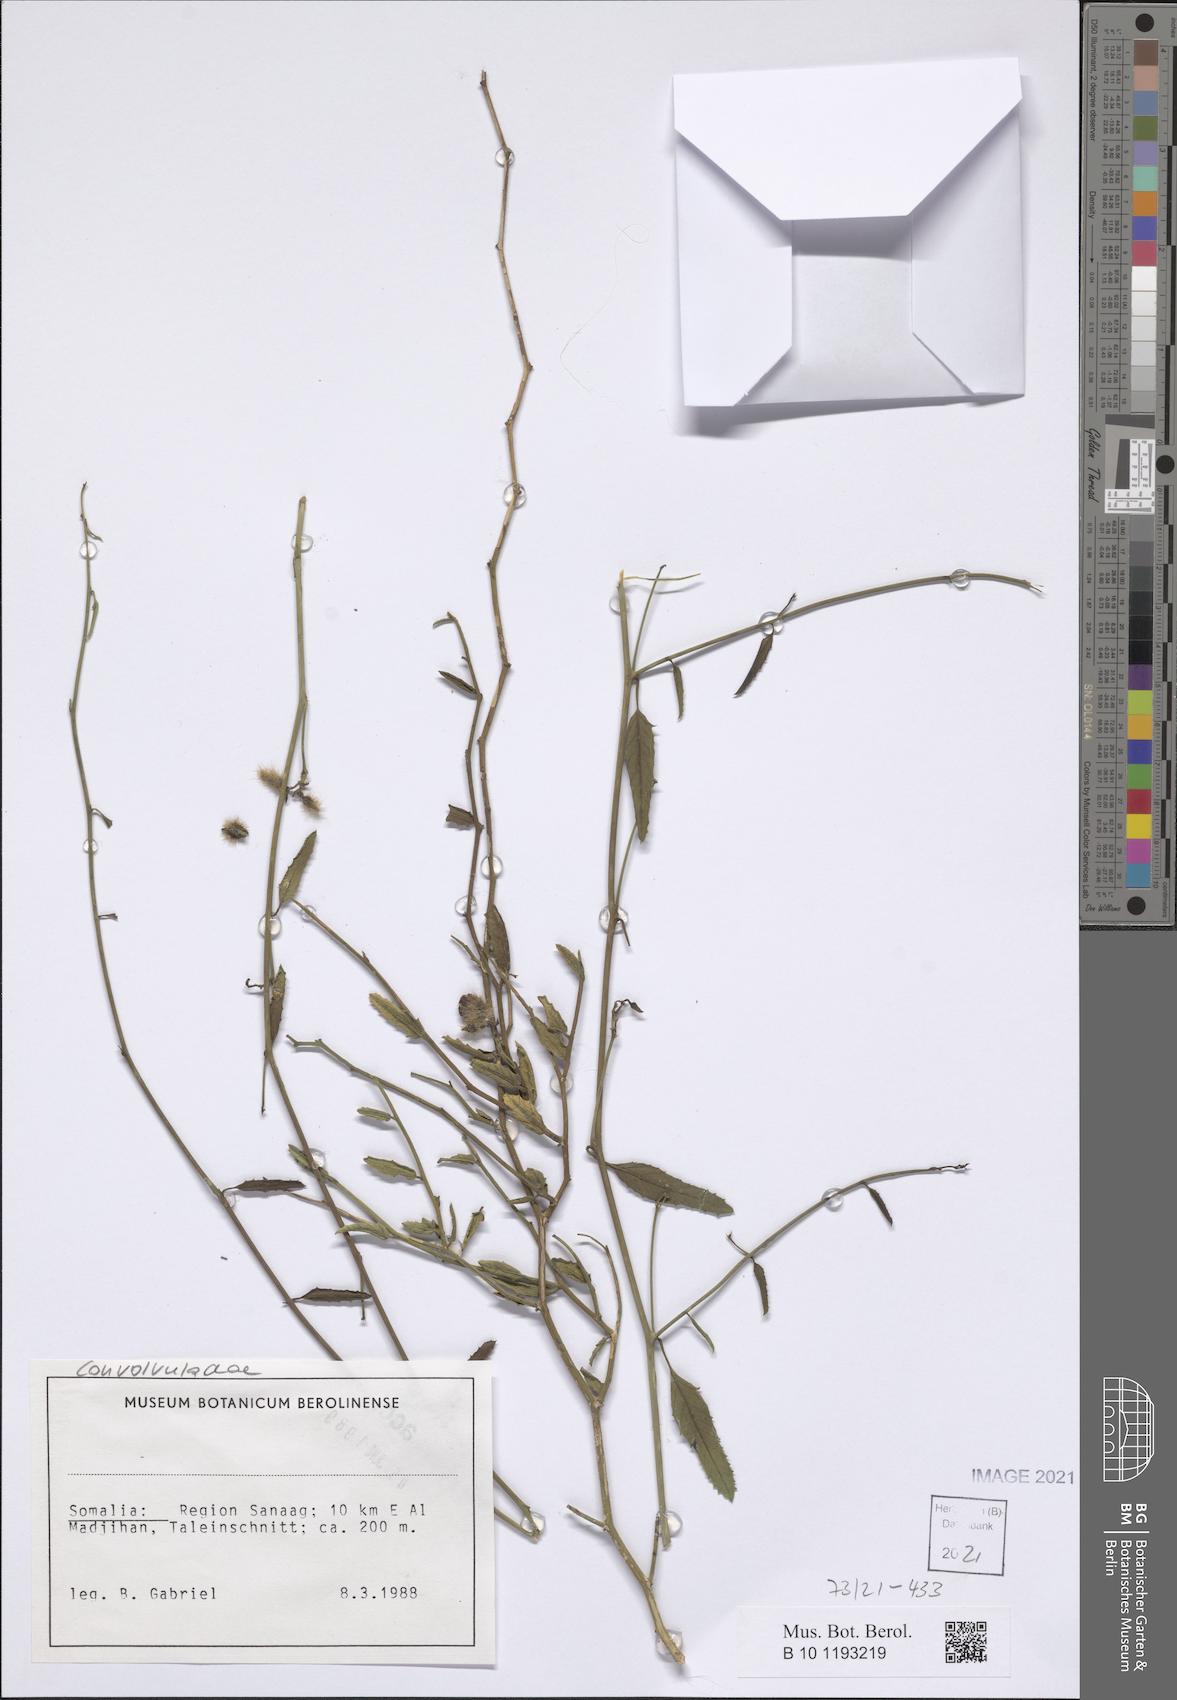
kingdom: Plantae
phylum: Tracheophyta
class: Magnoliopsida
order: Solanales
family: Convolvulaceae
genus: Distimake
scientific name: Distimake somalensis
